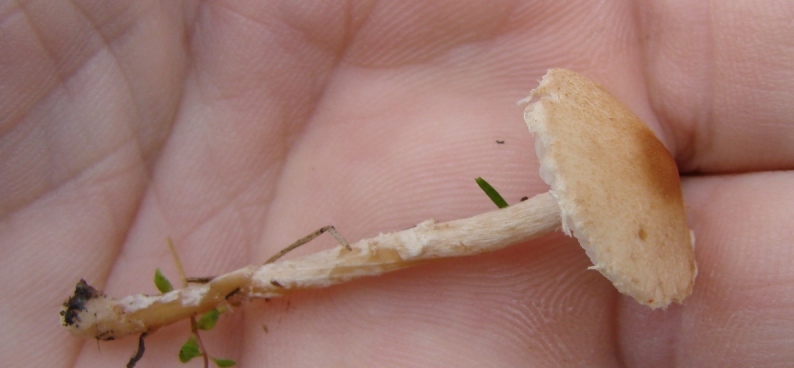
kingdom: Fungi
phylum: Basidiomycota
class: Agaricomycetes
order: Agaricales
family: Agaricaceae
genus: Lepiota
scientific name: Lepiota subincarnata
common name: kødfarvet parasolhat
